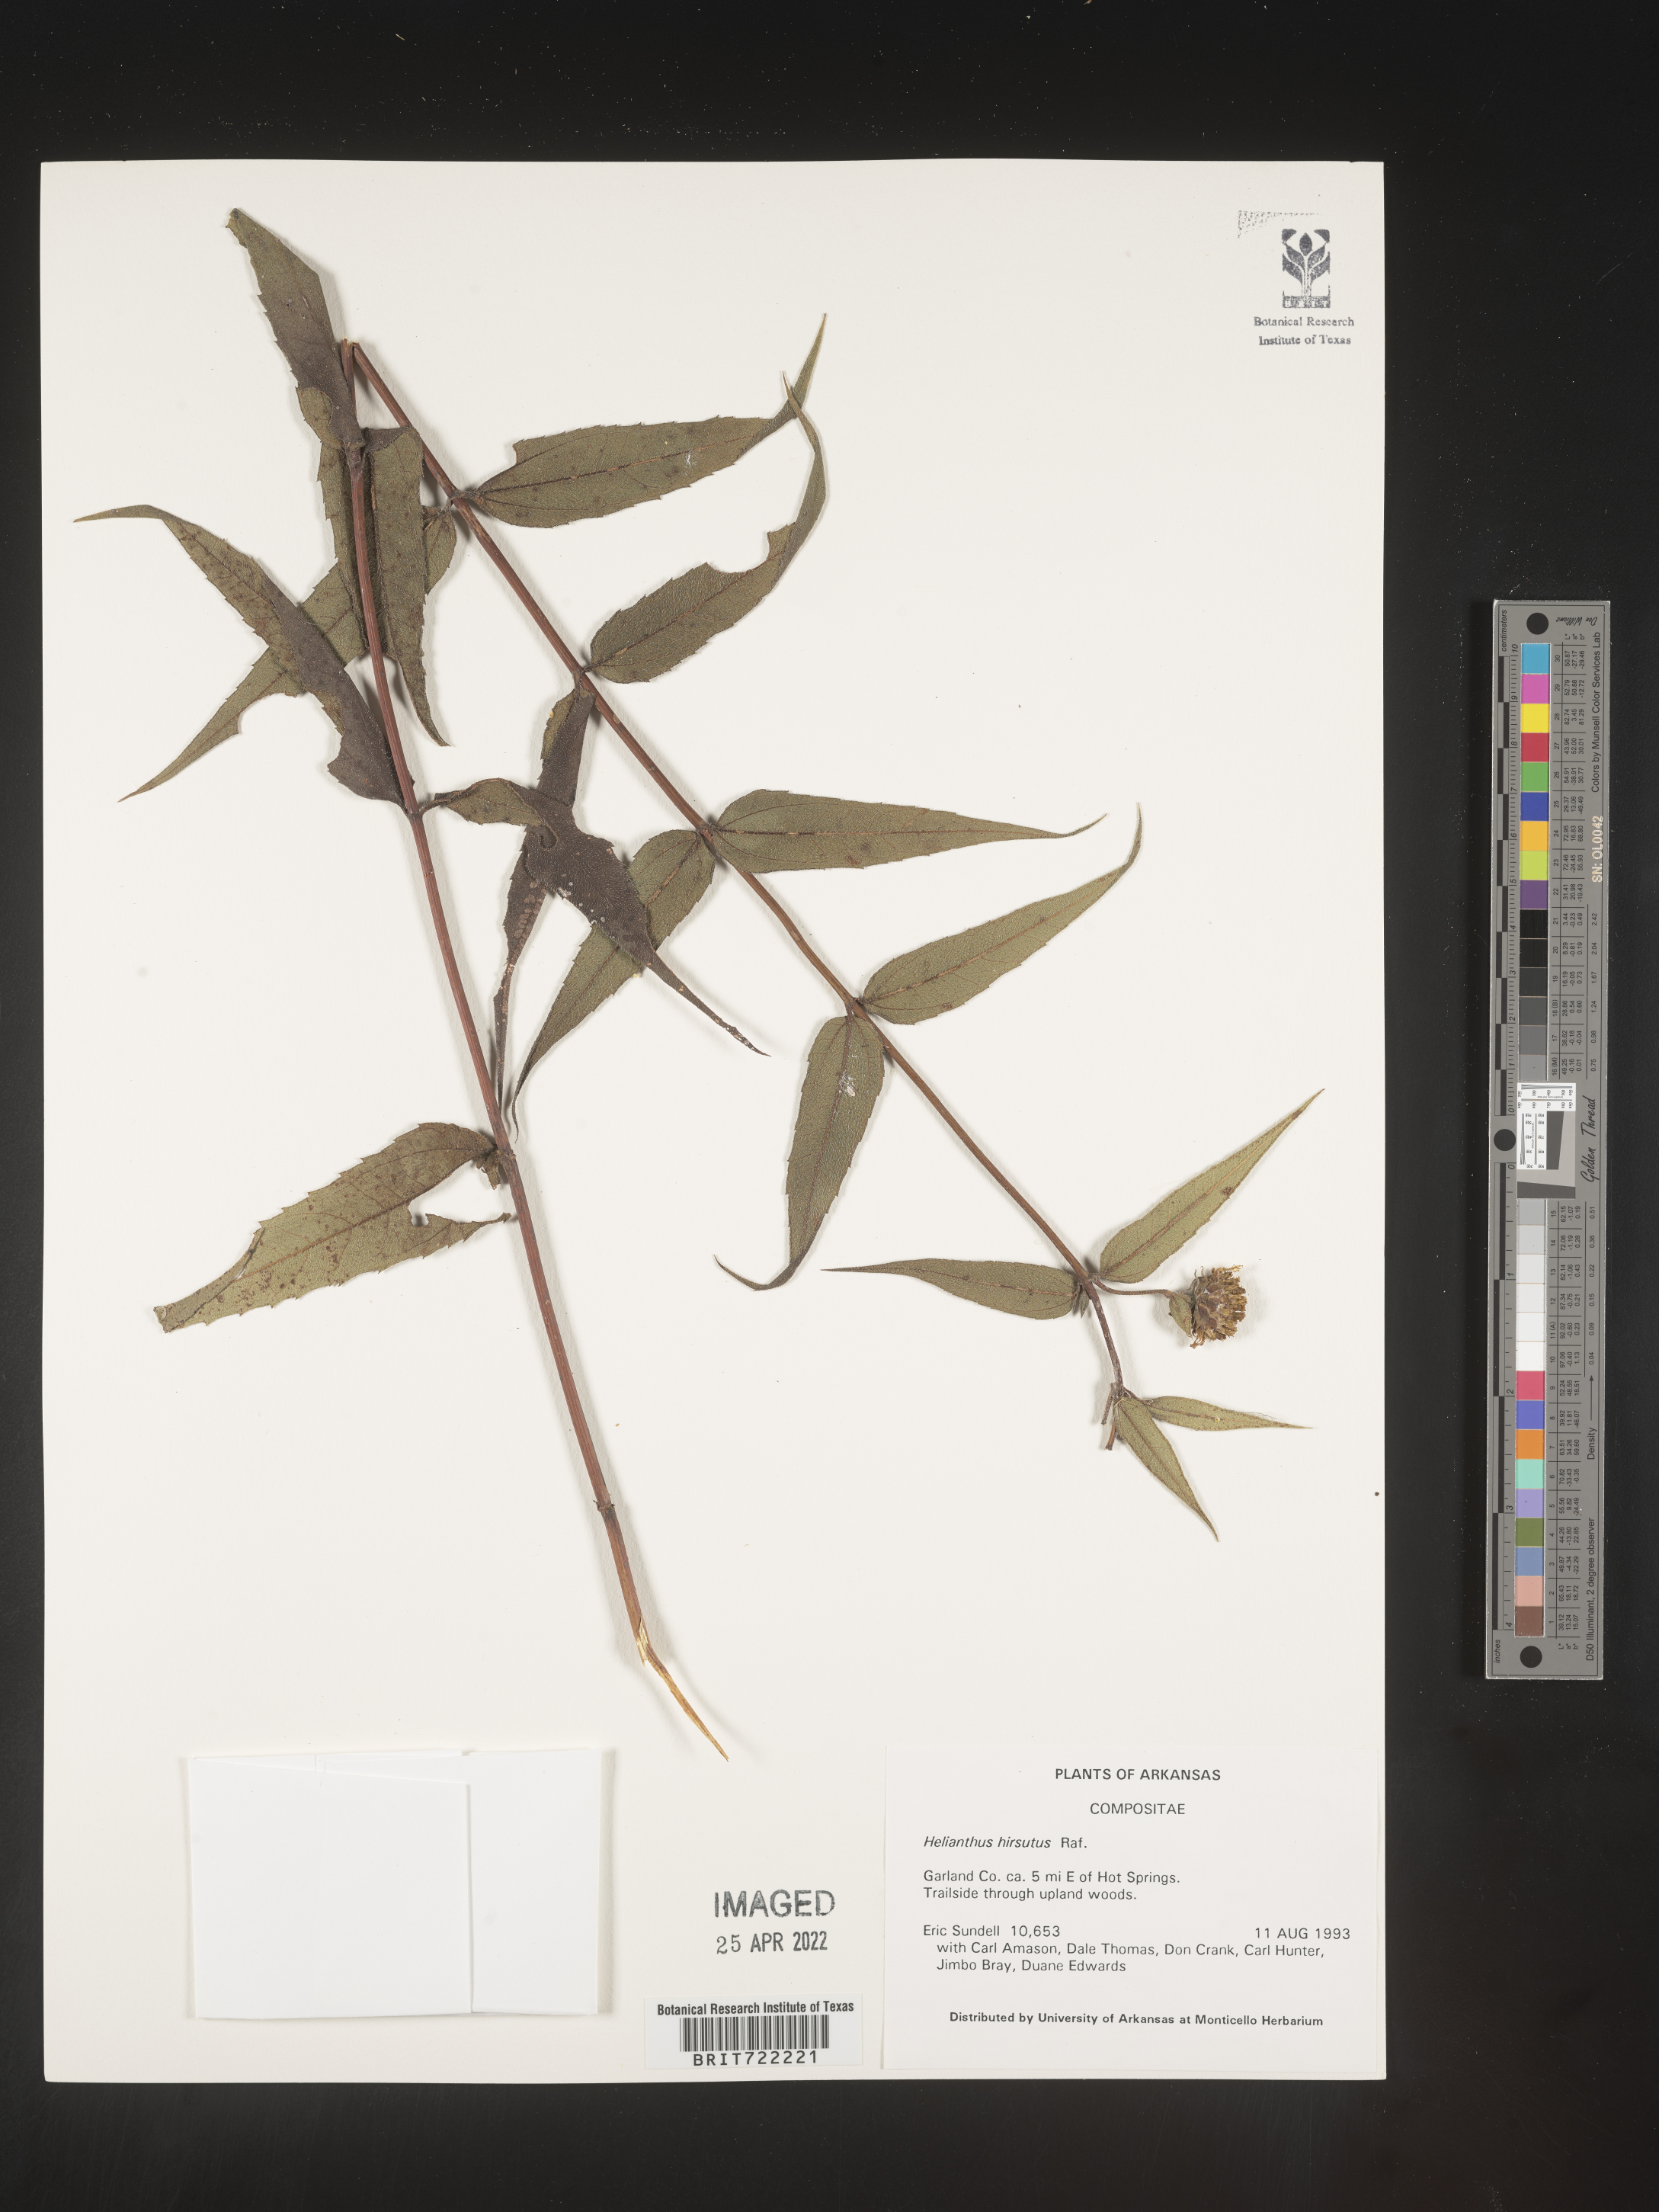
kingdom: Plantae
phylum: Tracheophyta
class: Magnoliopsida
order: Asterales
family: Asteraceae
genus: Helianthus
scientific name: Helianthus hirsutus
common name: Hairy sunflower
